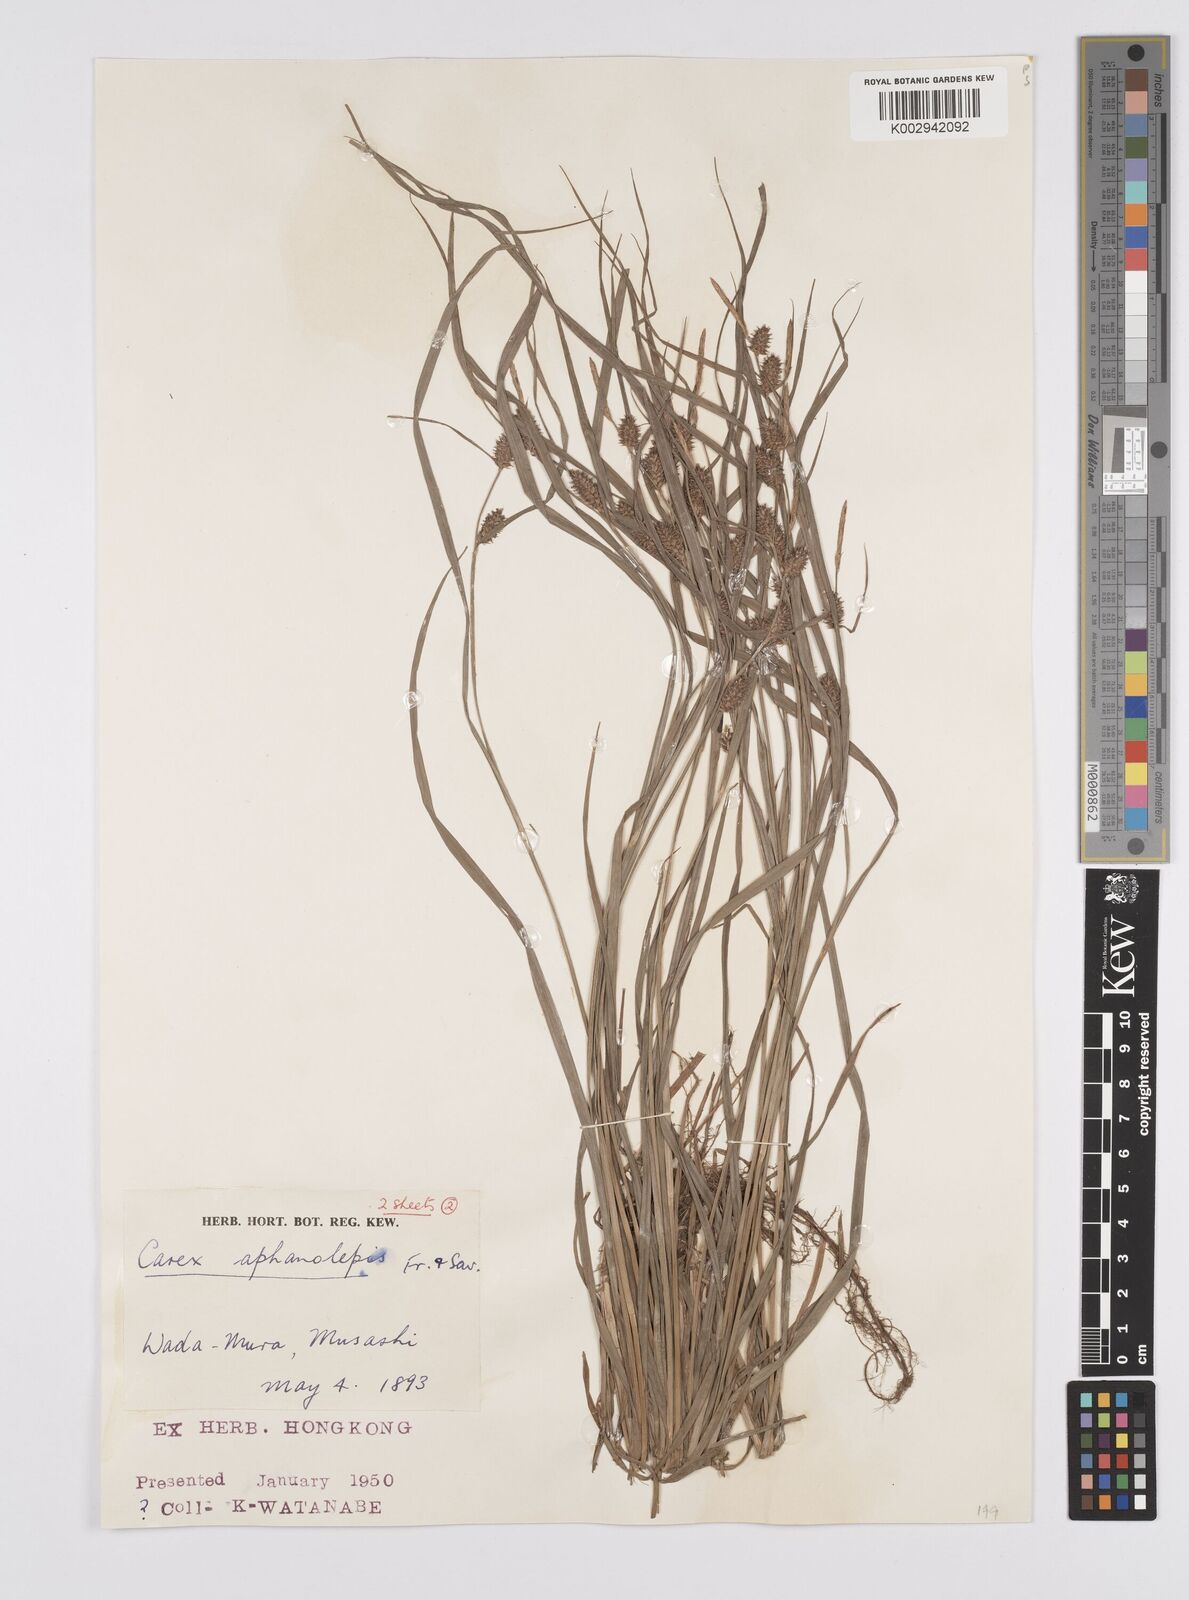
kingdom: Plantae
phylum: Tracheophyta
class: Liliopsida
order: Poales
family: Cyperaceae
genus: Carex
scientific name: Carex japonica
